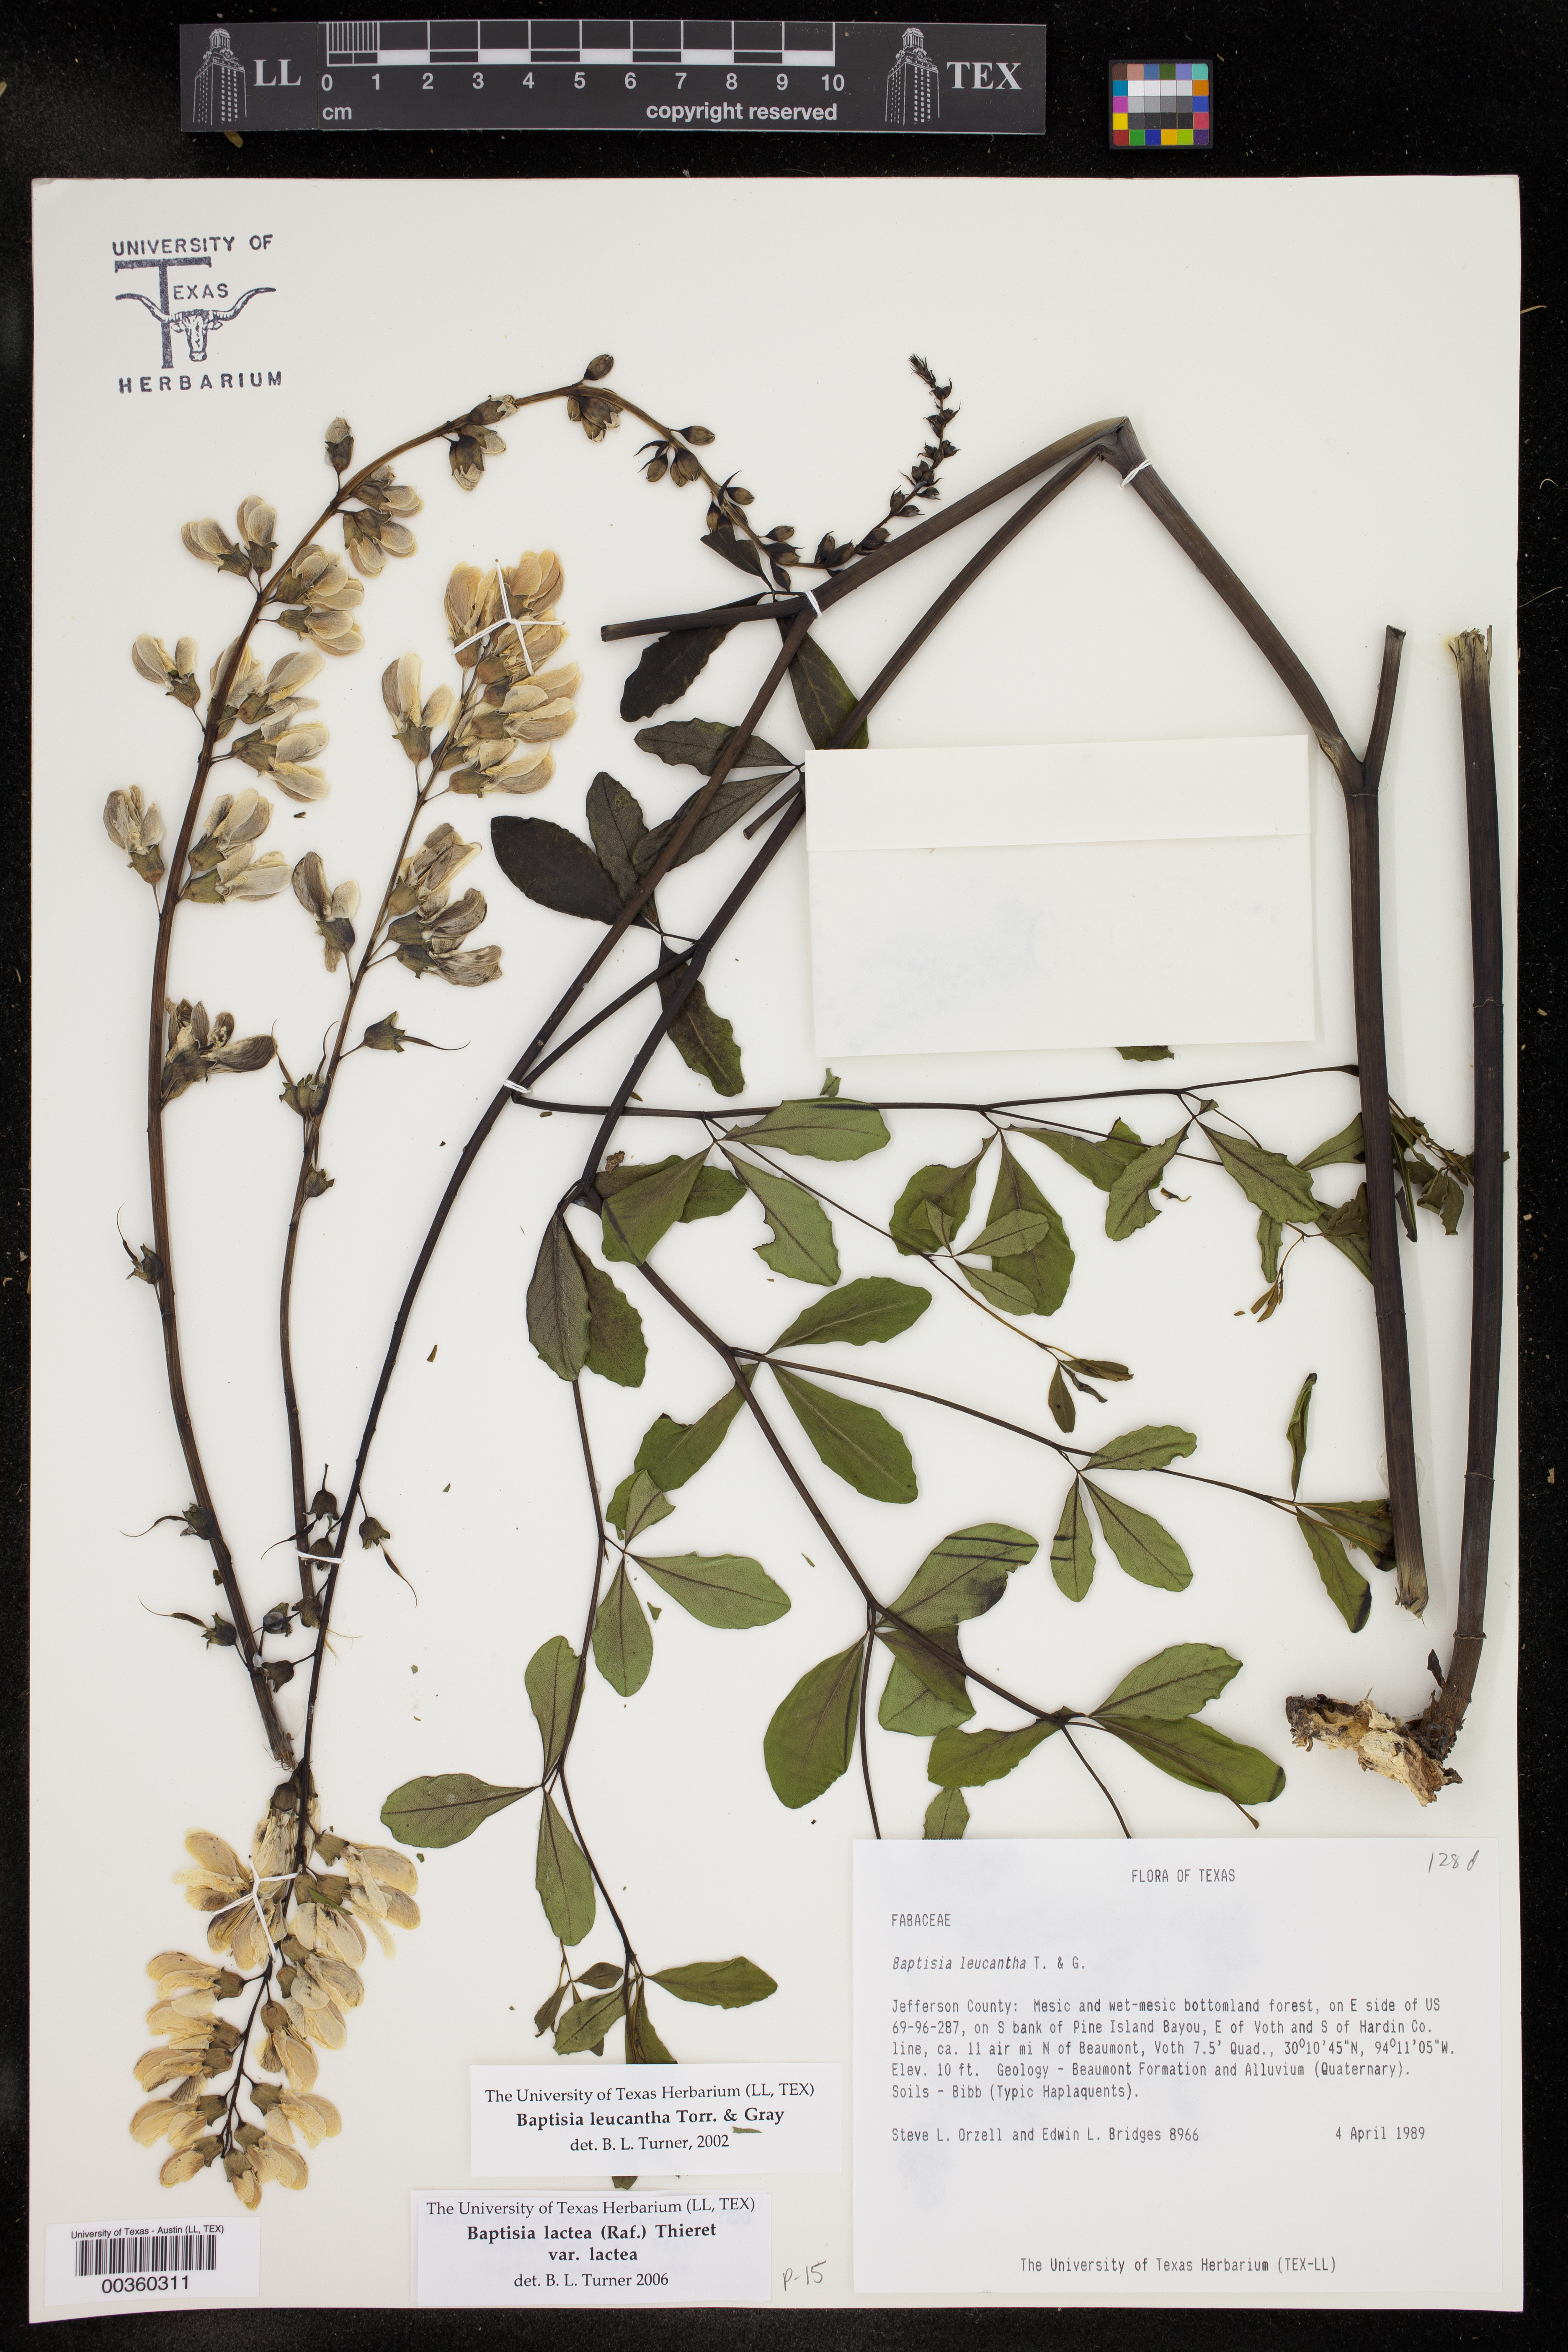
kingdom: Plantae
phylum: Tracheophyta
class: Magnoliopsida
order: Fabales
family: Fabaceae
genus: Baptisia
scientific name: Baptisia alba
